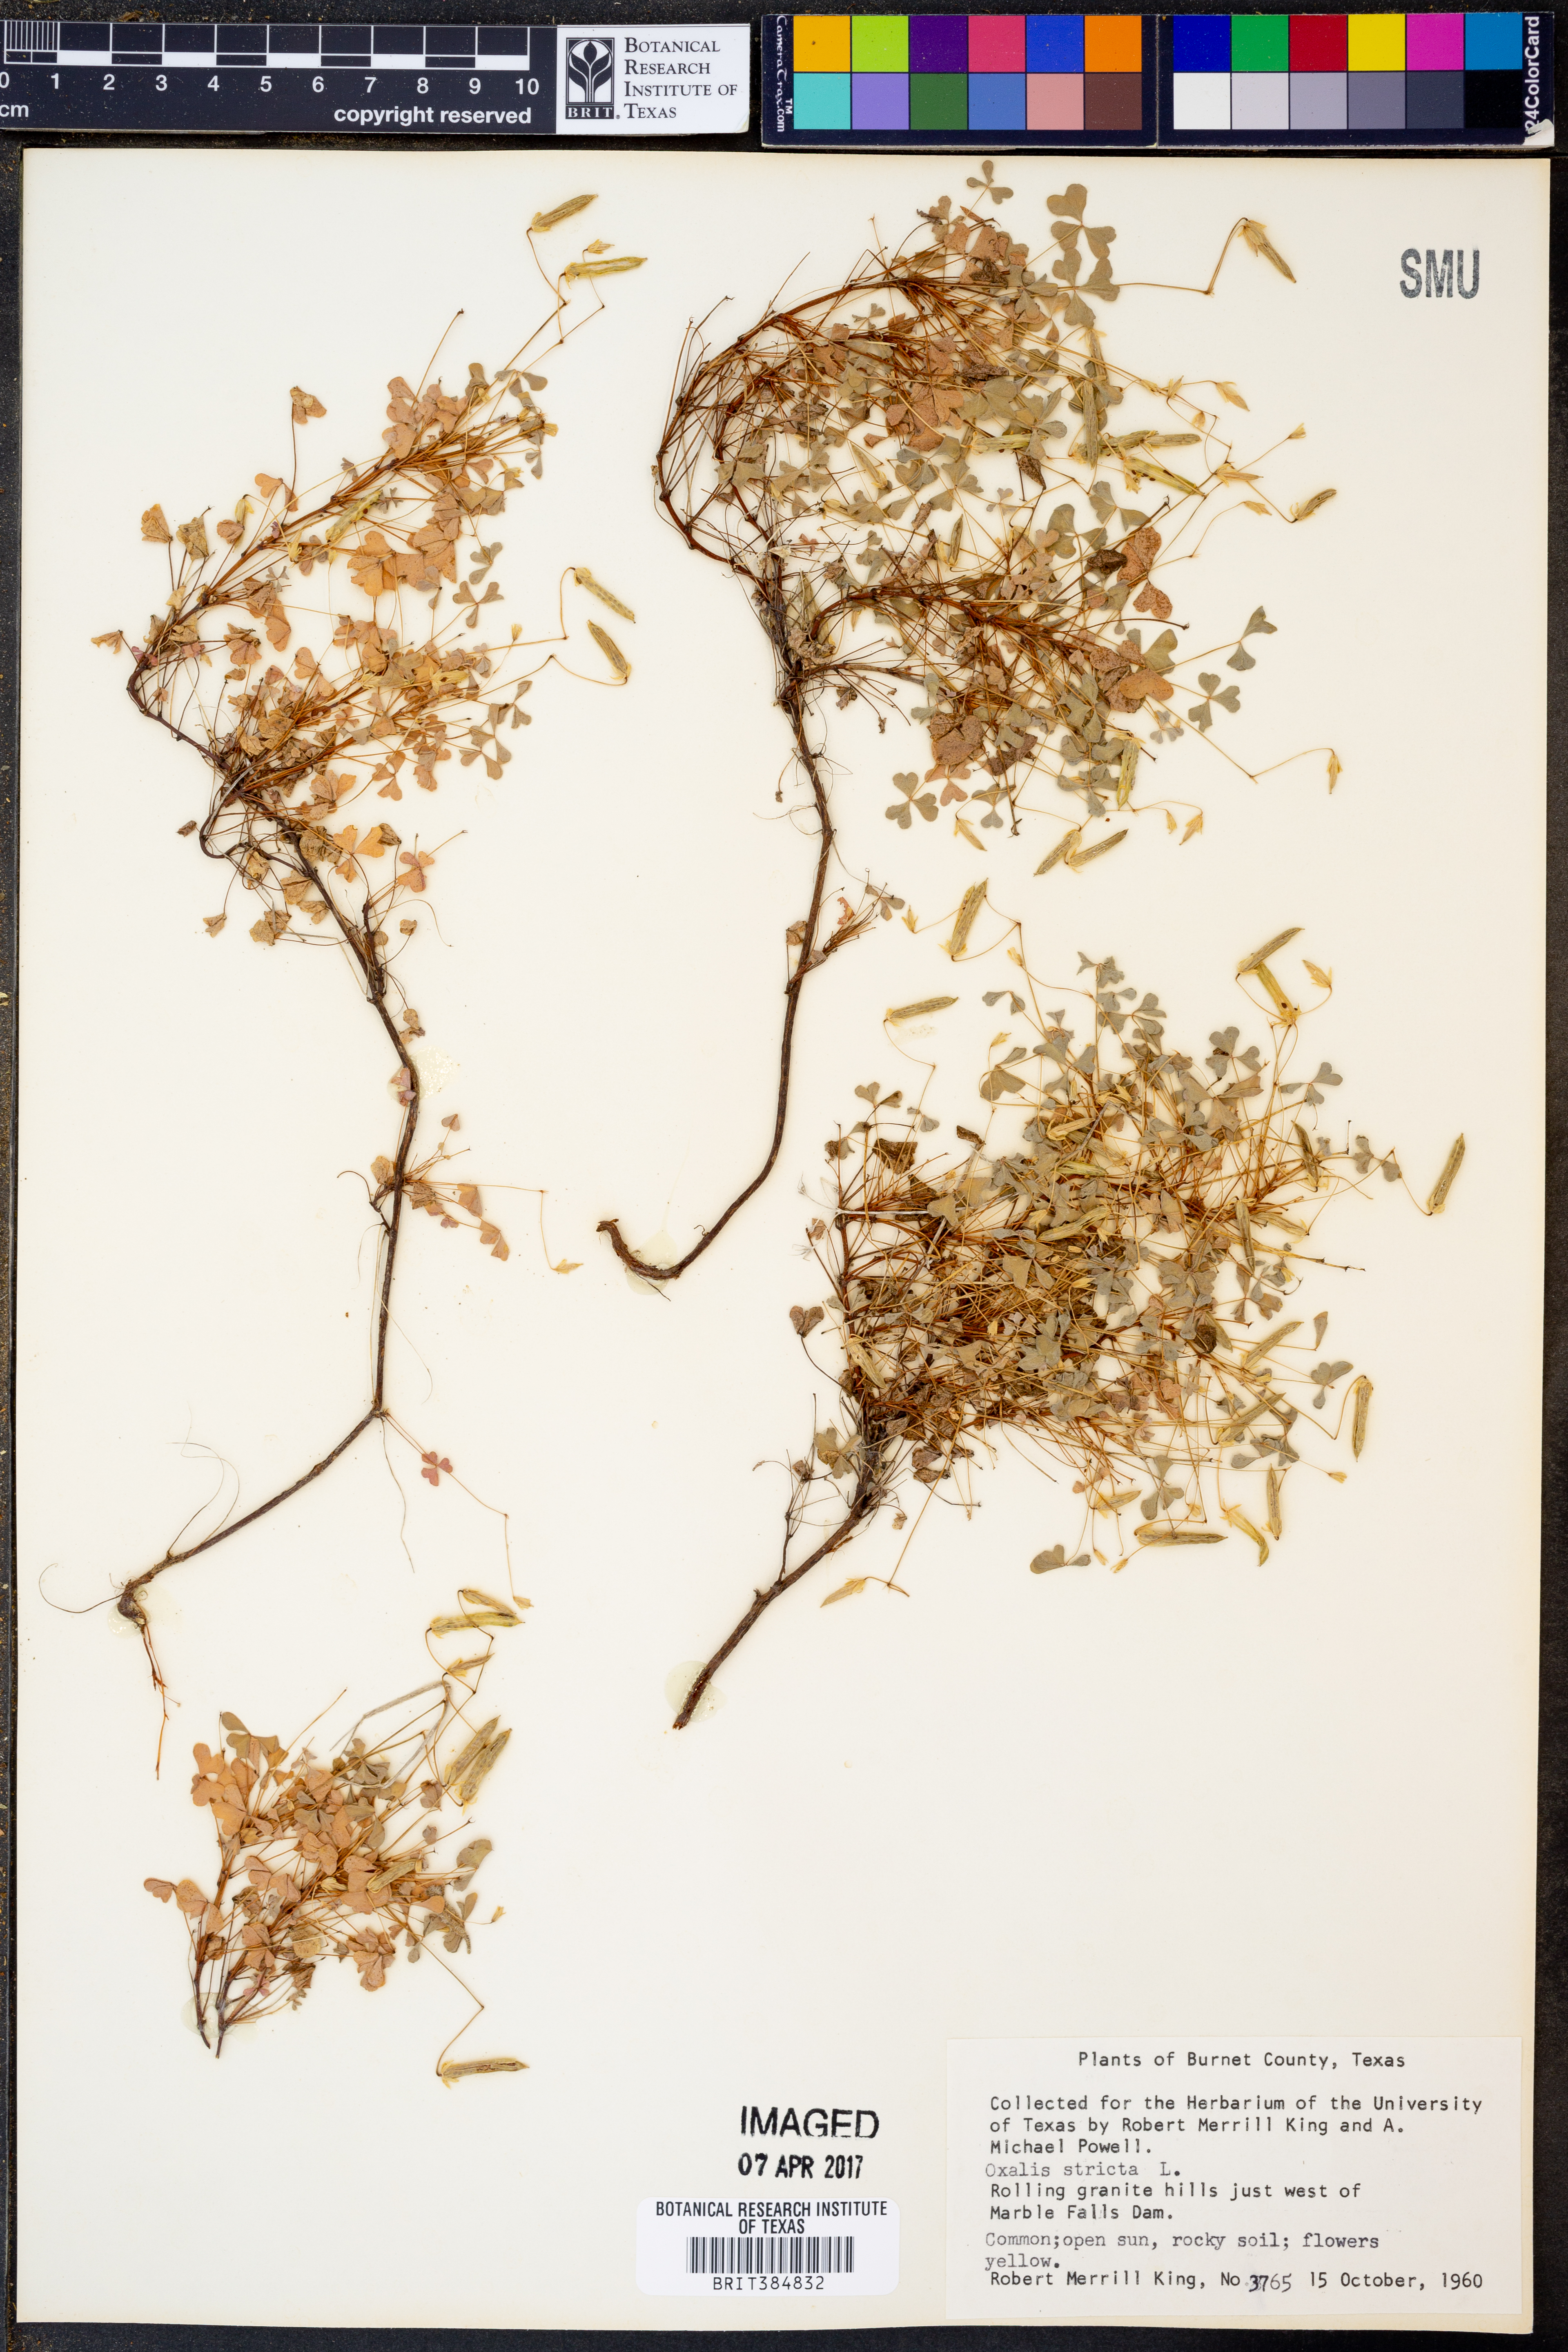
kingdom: Plantae
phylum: Tracheophyta
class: Magnoliopsida
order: Oxalidales
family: Oxalidaceae
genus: Oxalis
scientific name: Oxalis stricta
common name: Upright yellow-sorrel
